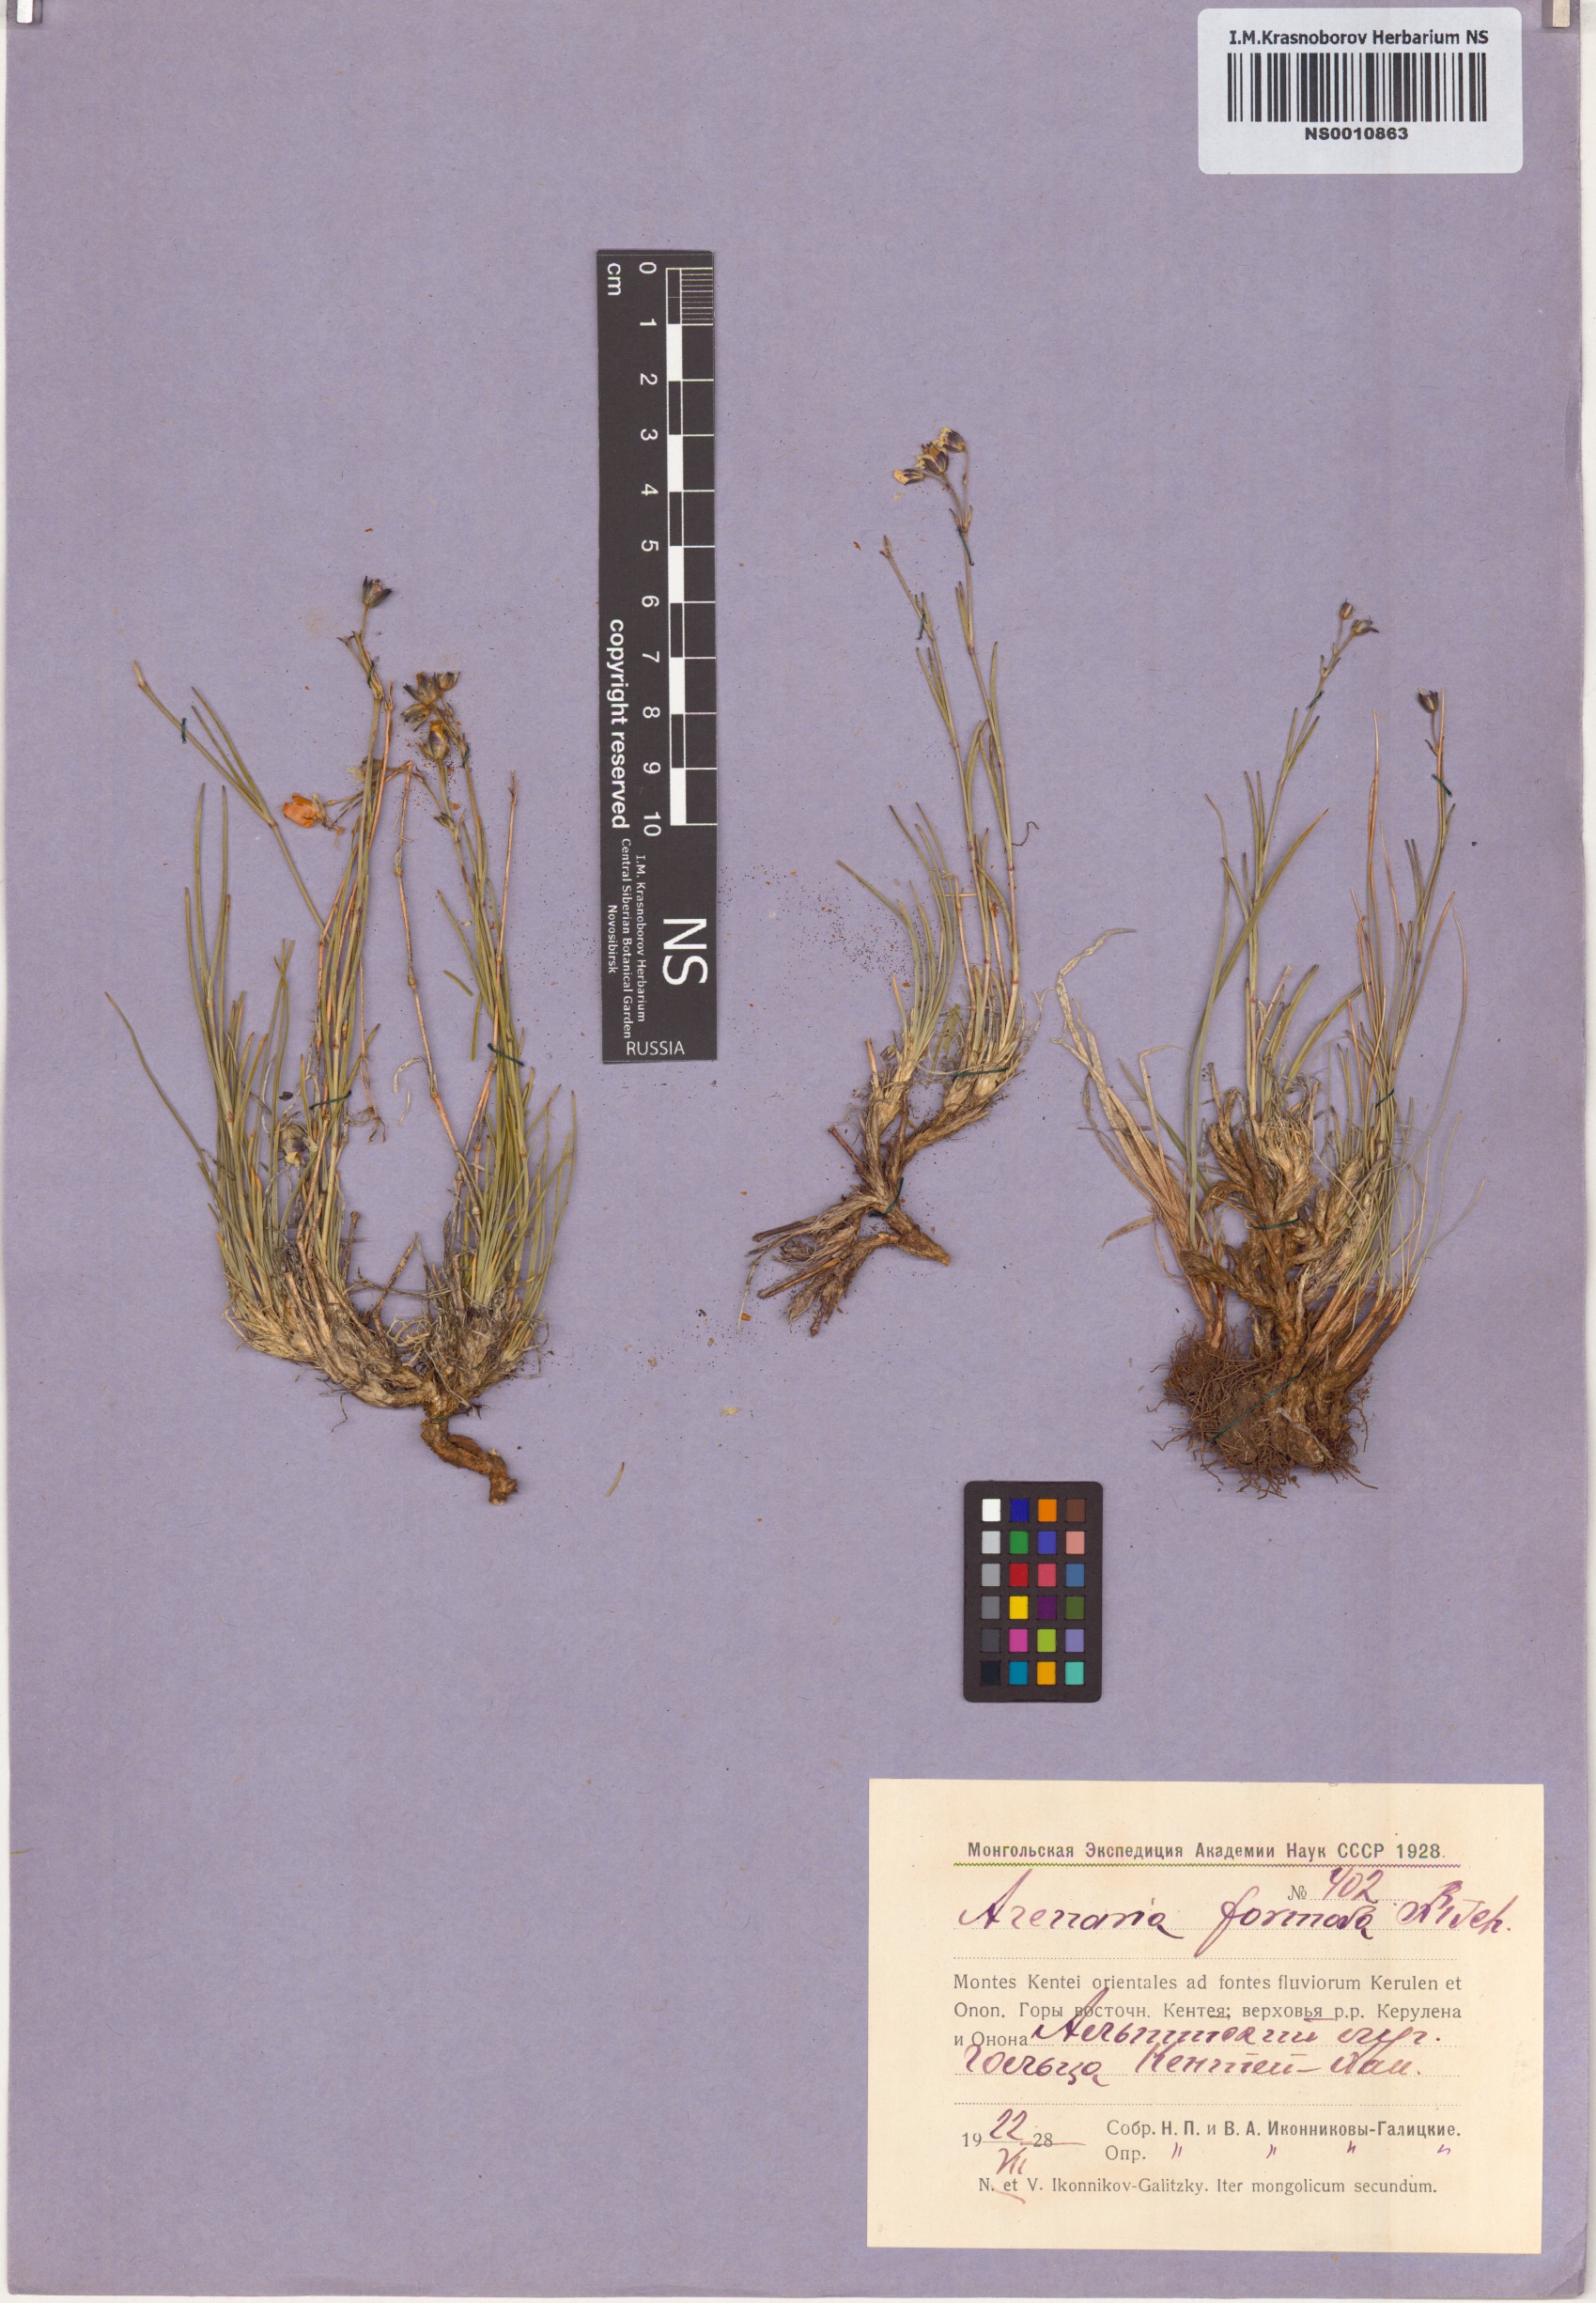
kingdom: Plantae
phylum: Tracheophyta
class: Magnoliopsida
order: Caryophyllales
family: Caryophyllaceae
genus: Eremogone
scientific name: Eremogone formosa
